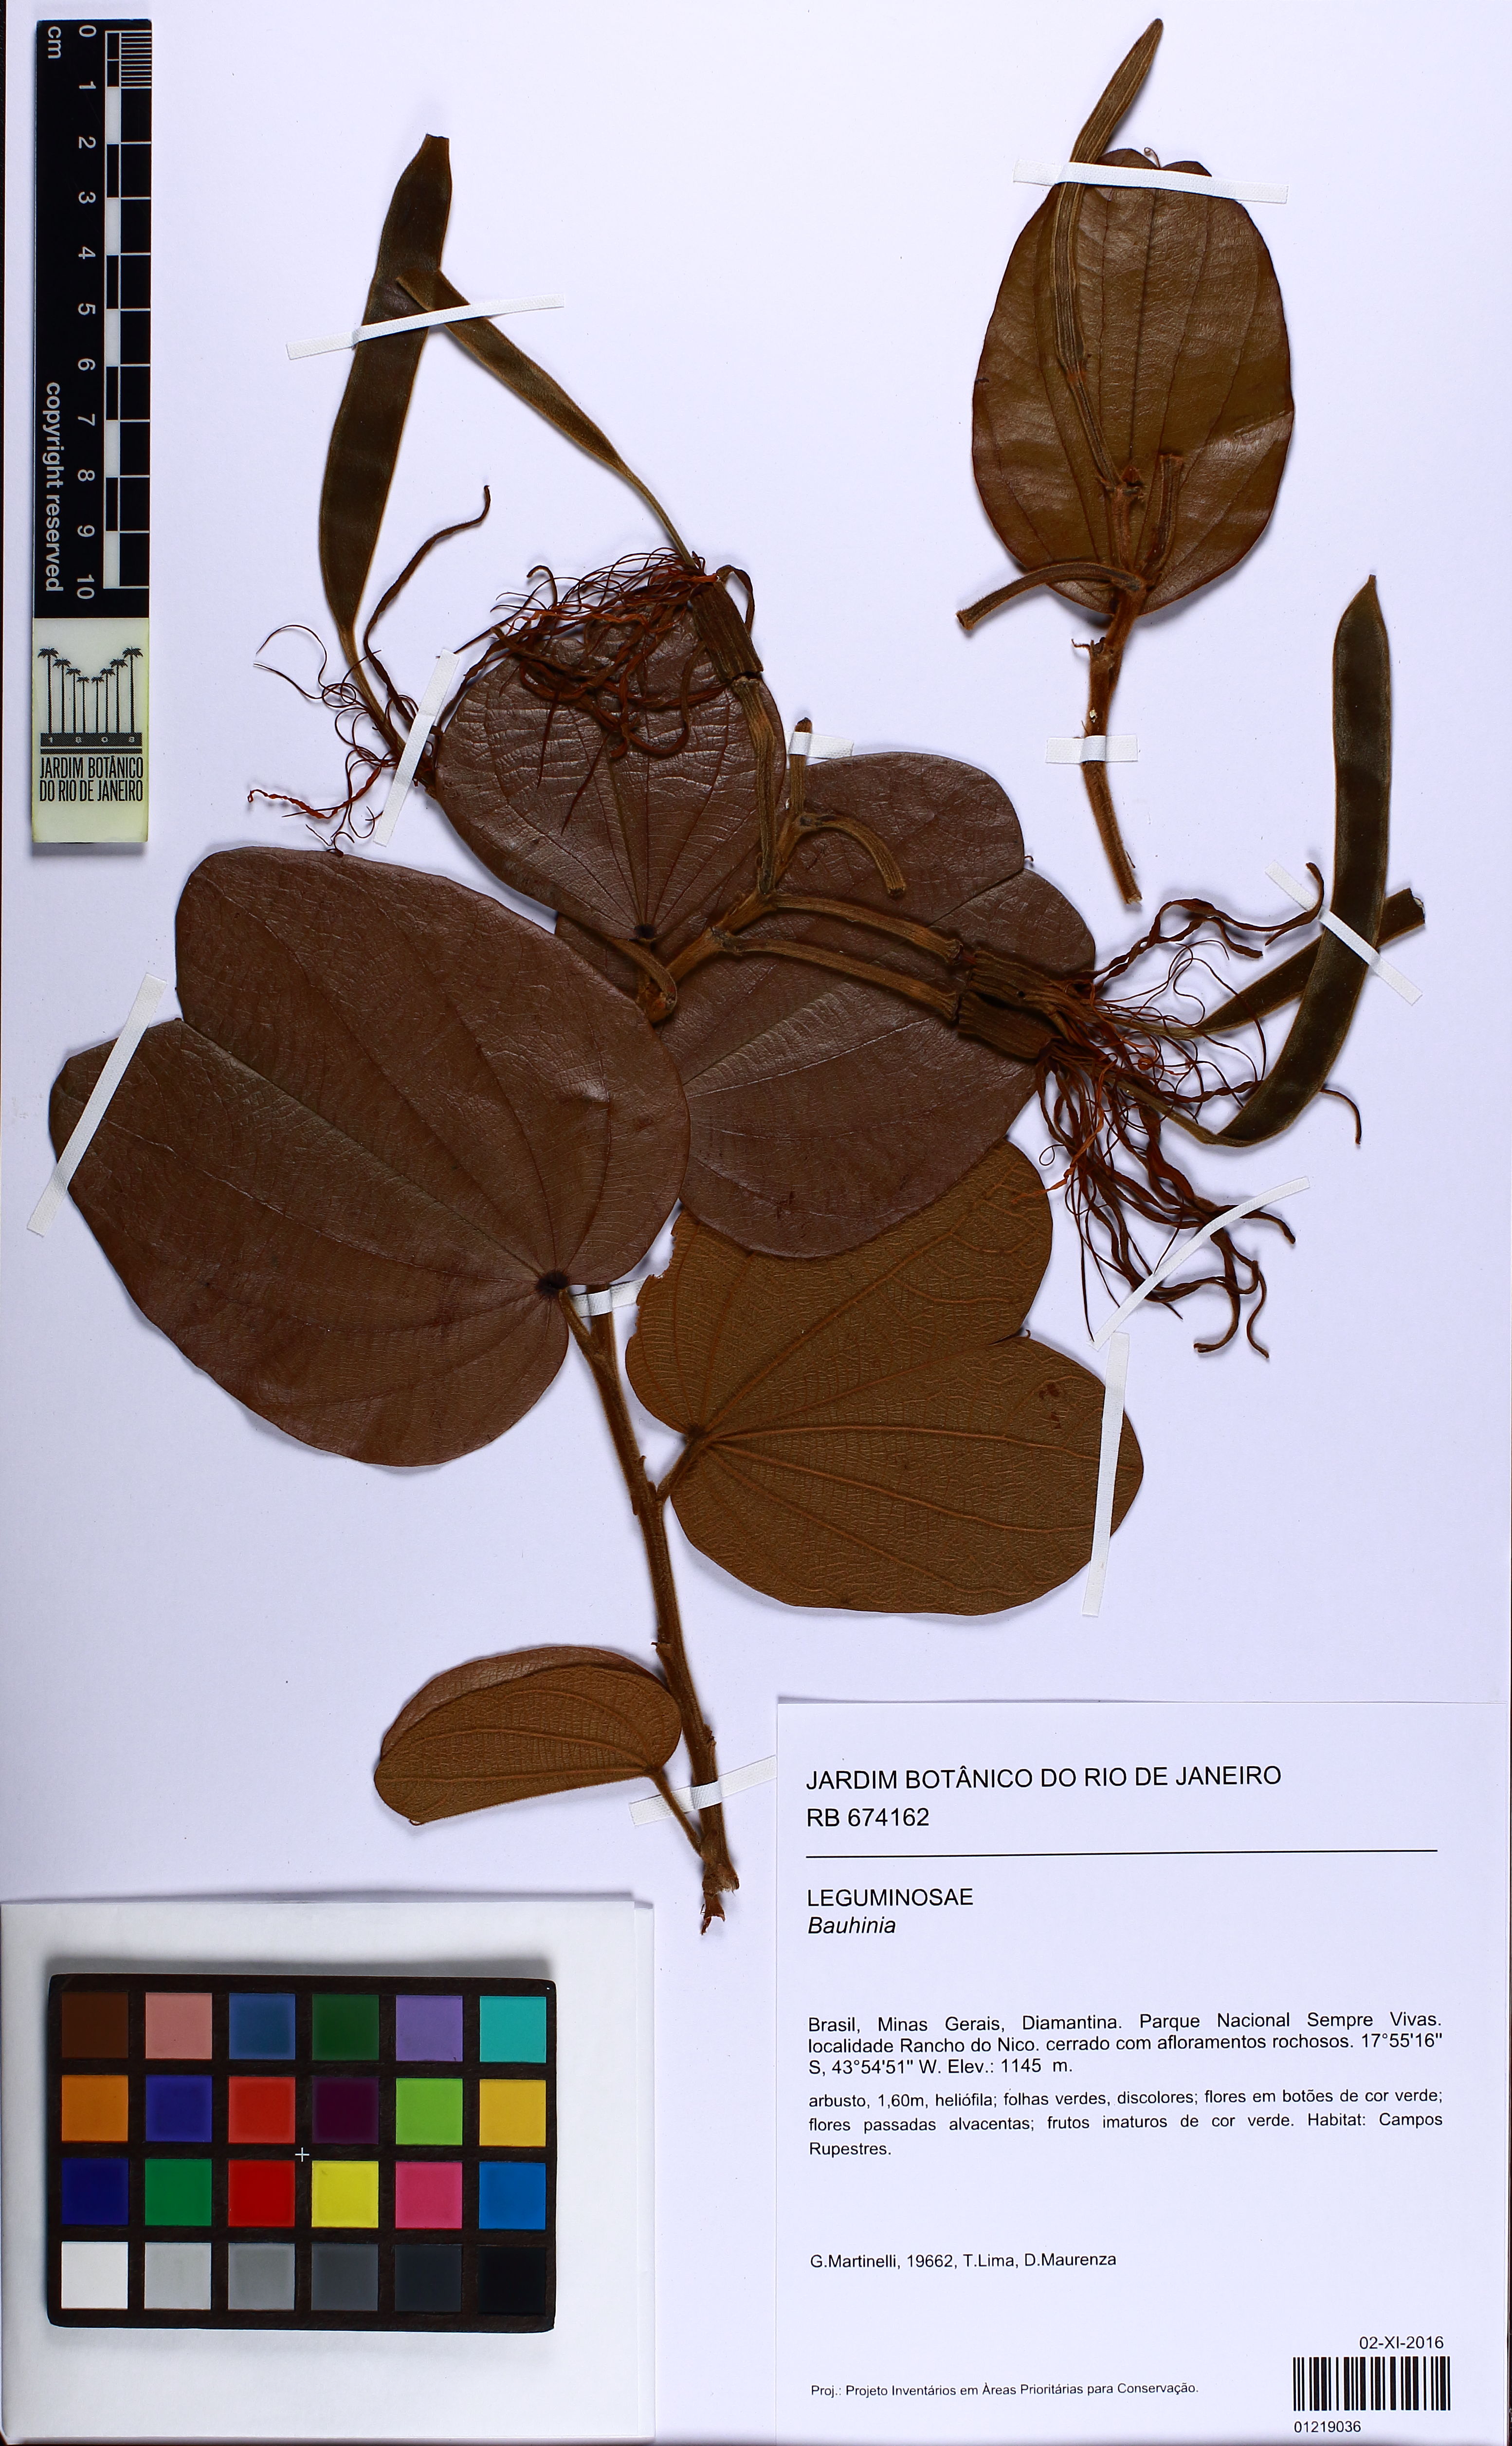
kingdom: Plantae
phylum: Tracheophyta
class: Magnoliopsida
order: Fabales
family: Fabaceae
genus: Bauhinia
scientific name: Bauhinia
